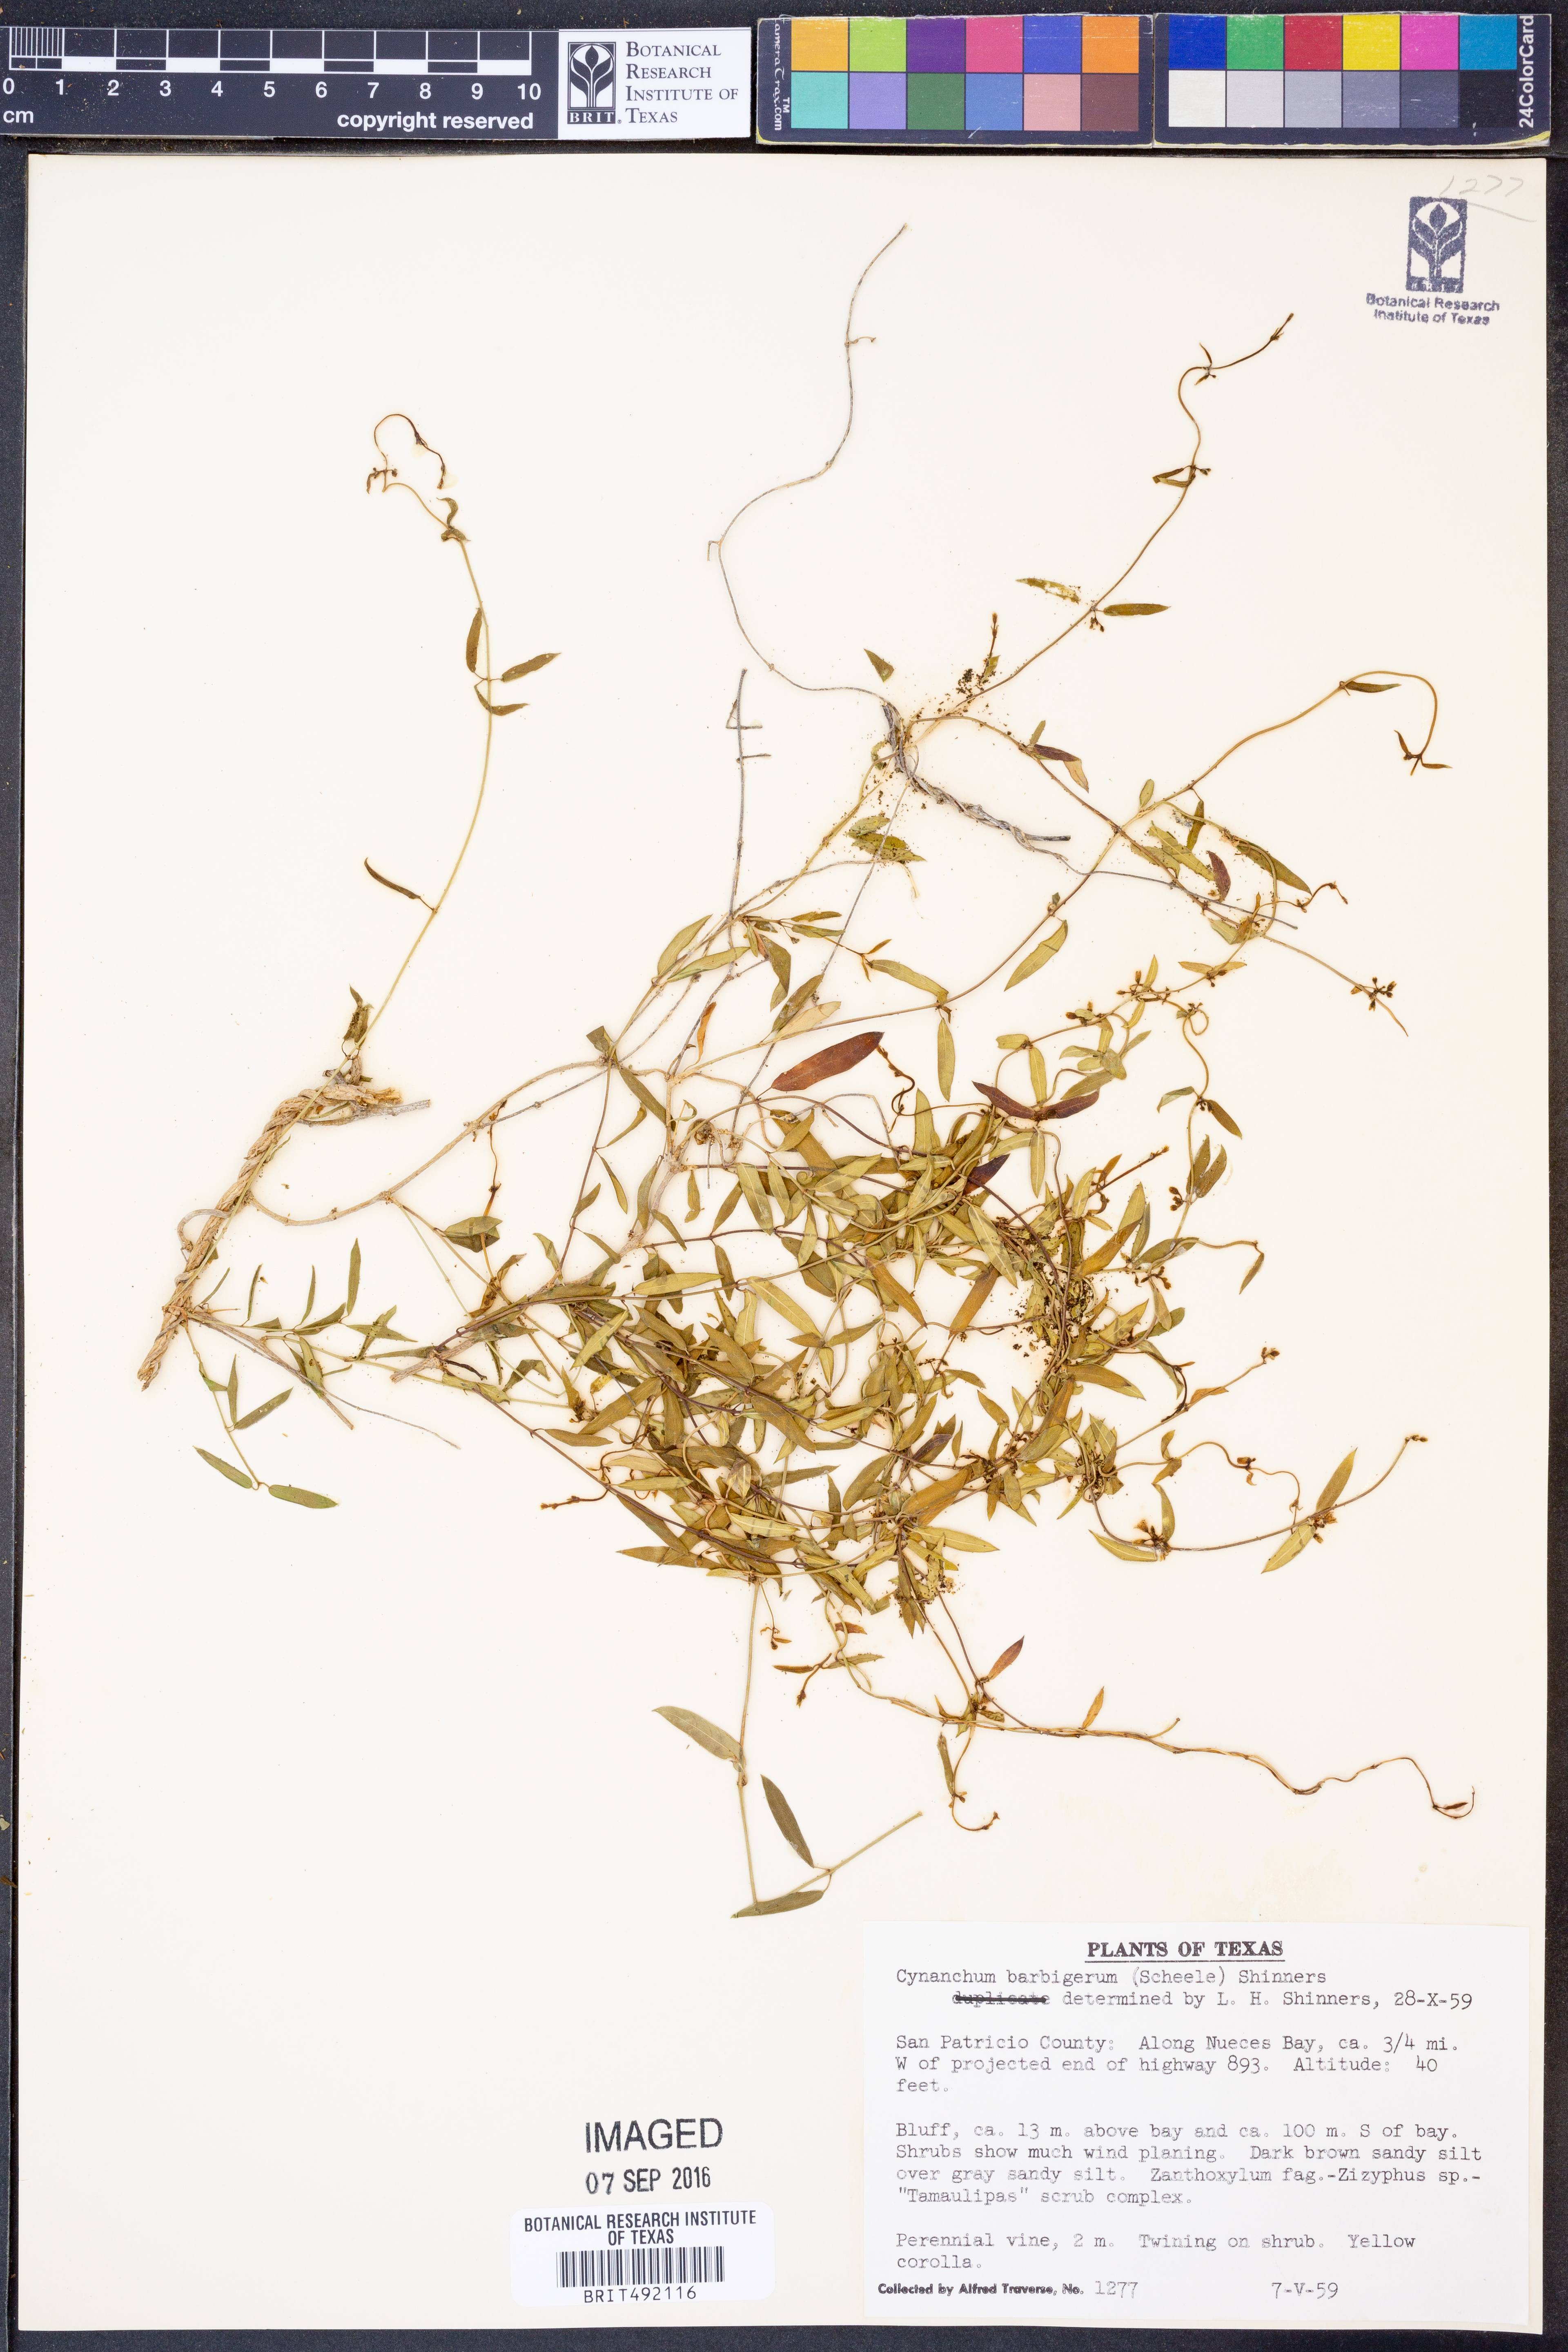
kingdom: Plantae
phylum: Tracheophyta
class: Magnoliopsida
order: Gentianales
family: Apocynaceae
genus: Metastelma
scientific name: Metastelma barbigerum
